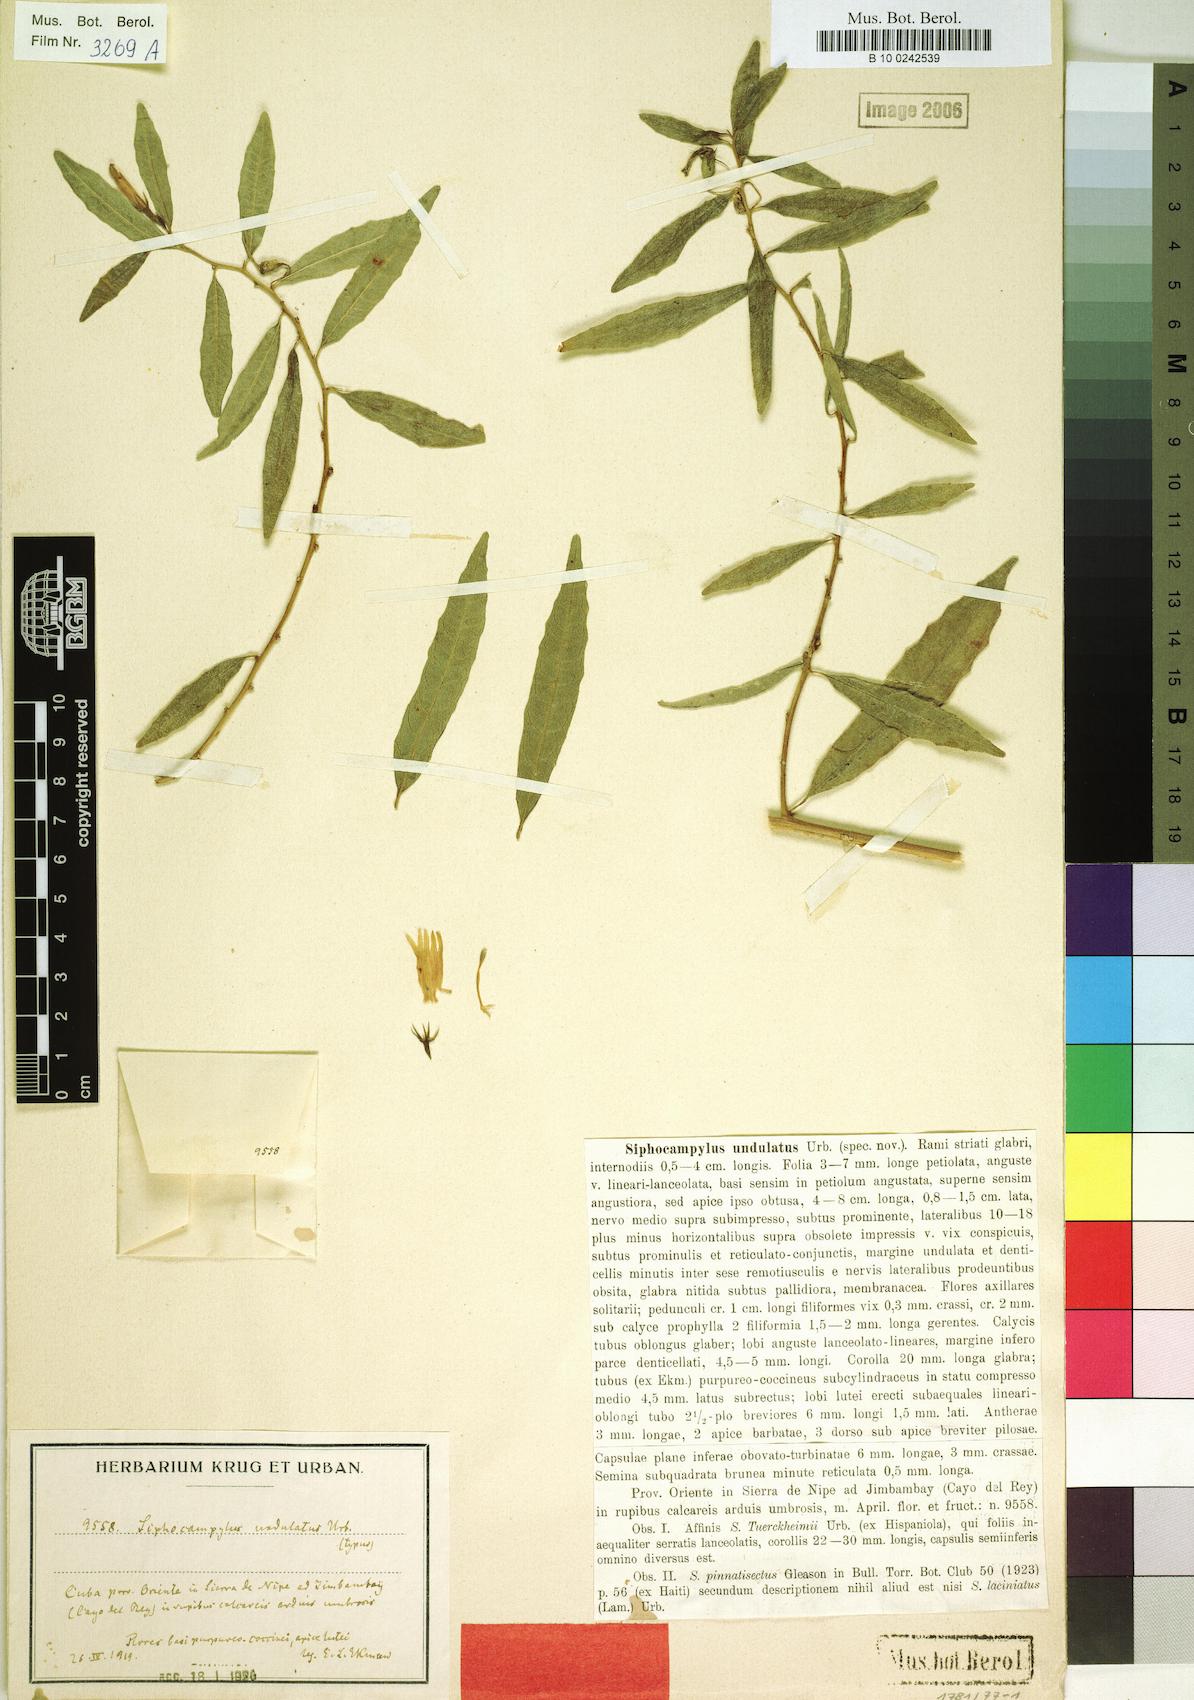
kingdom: Plantae
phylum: Tracheophyta
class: Magnoliopsida
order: Asterales
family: Campanulaceae
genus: Siphocampylus
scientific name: Siphocampylus manettiiflorus
